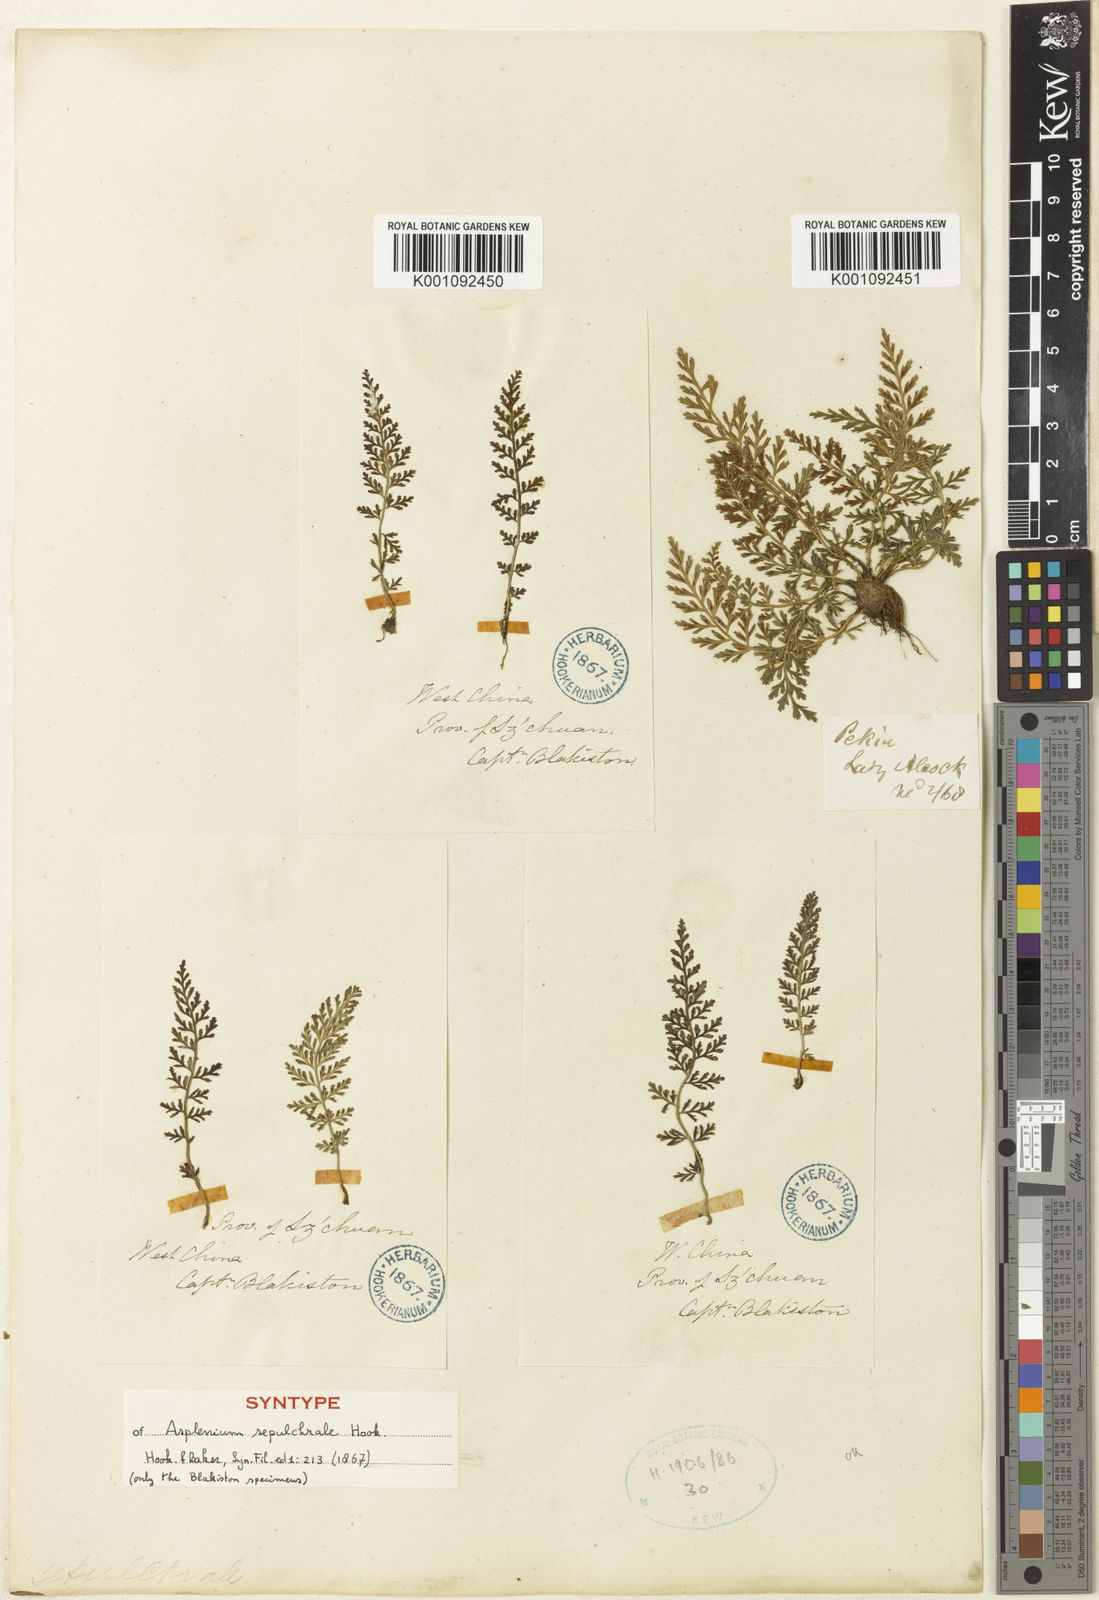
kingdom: Plantae
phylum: Tracheophyta
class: Polypodiopsida
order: Polypodiales
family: Aspleniaceae
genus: Asplenium
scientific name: Asplenium sarelii
